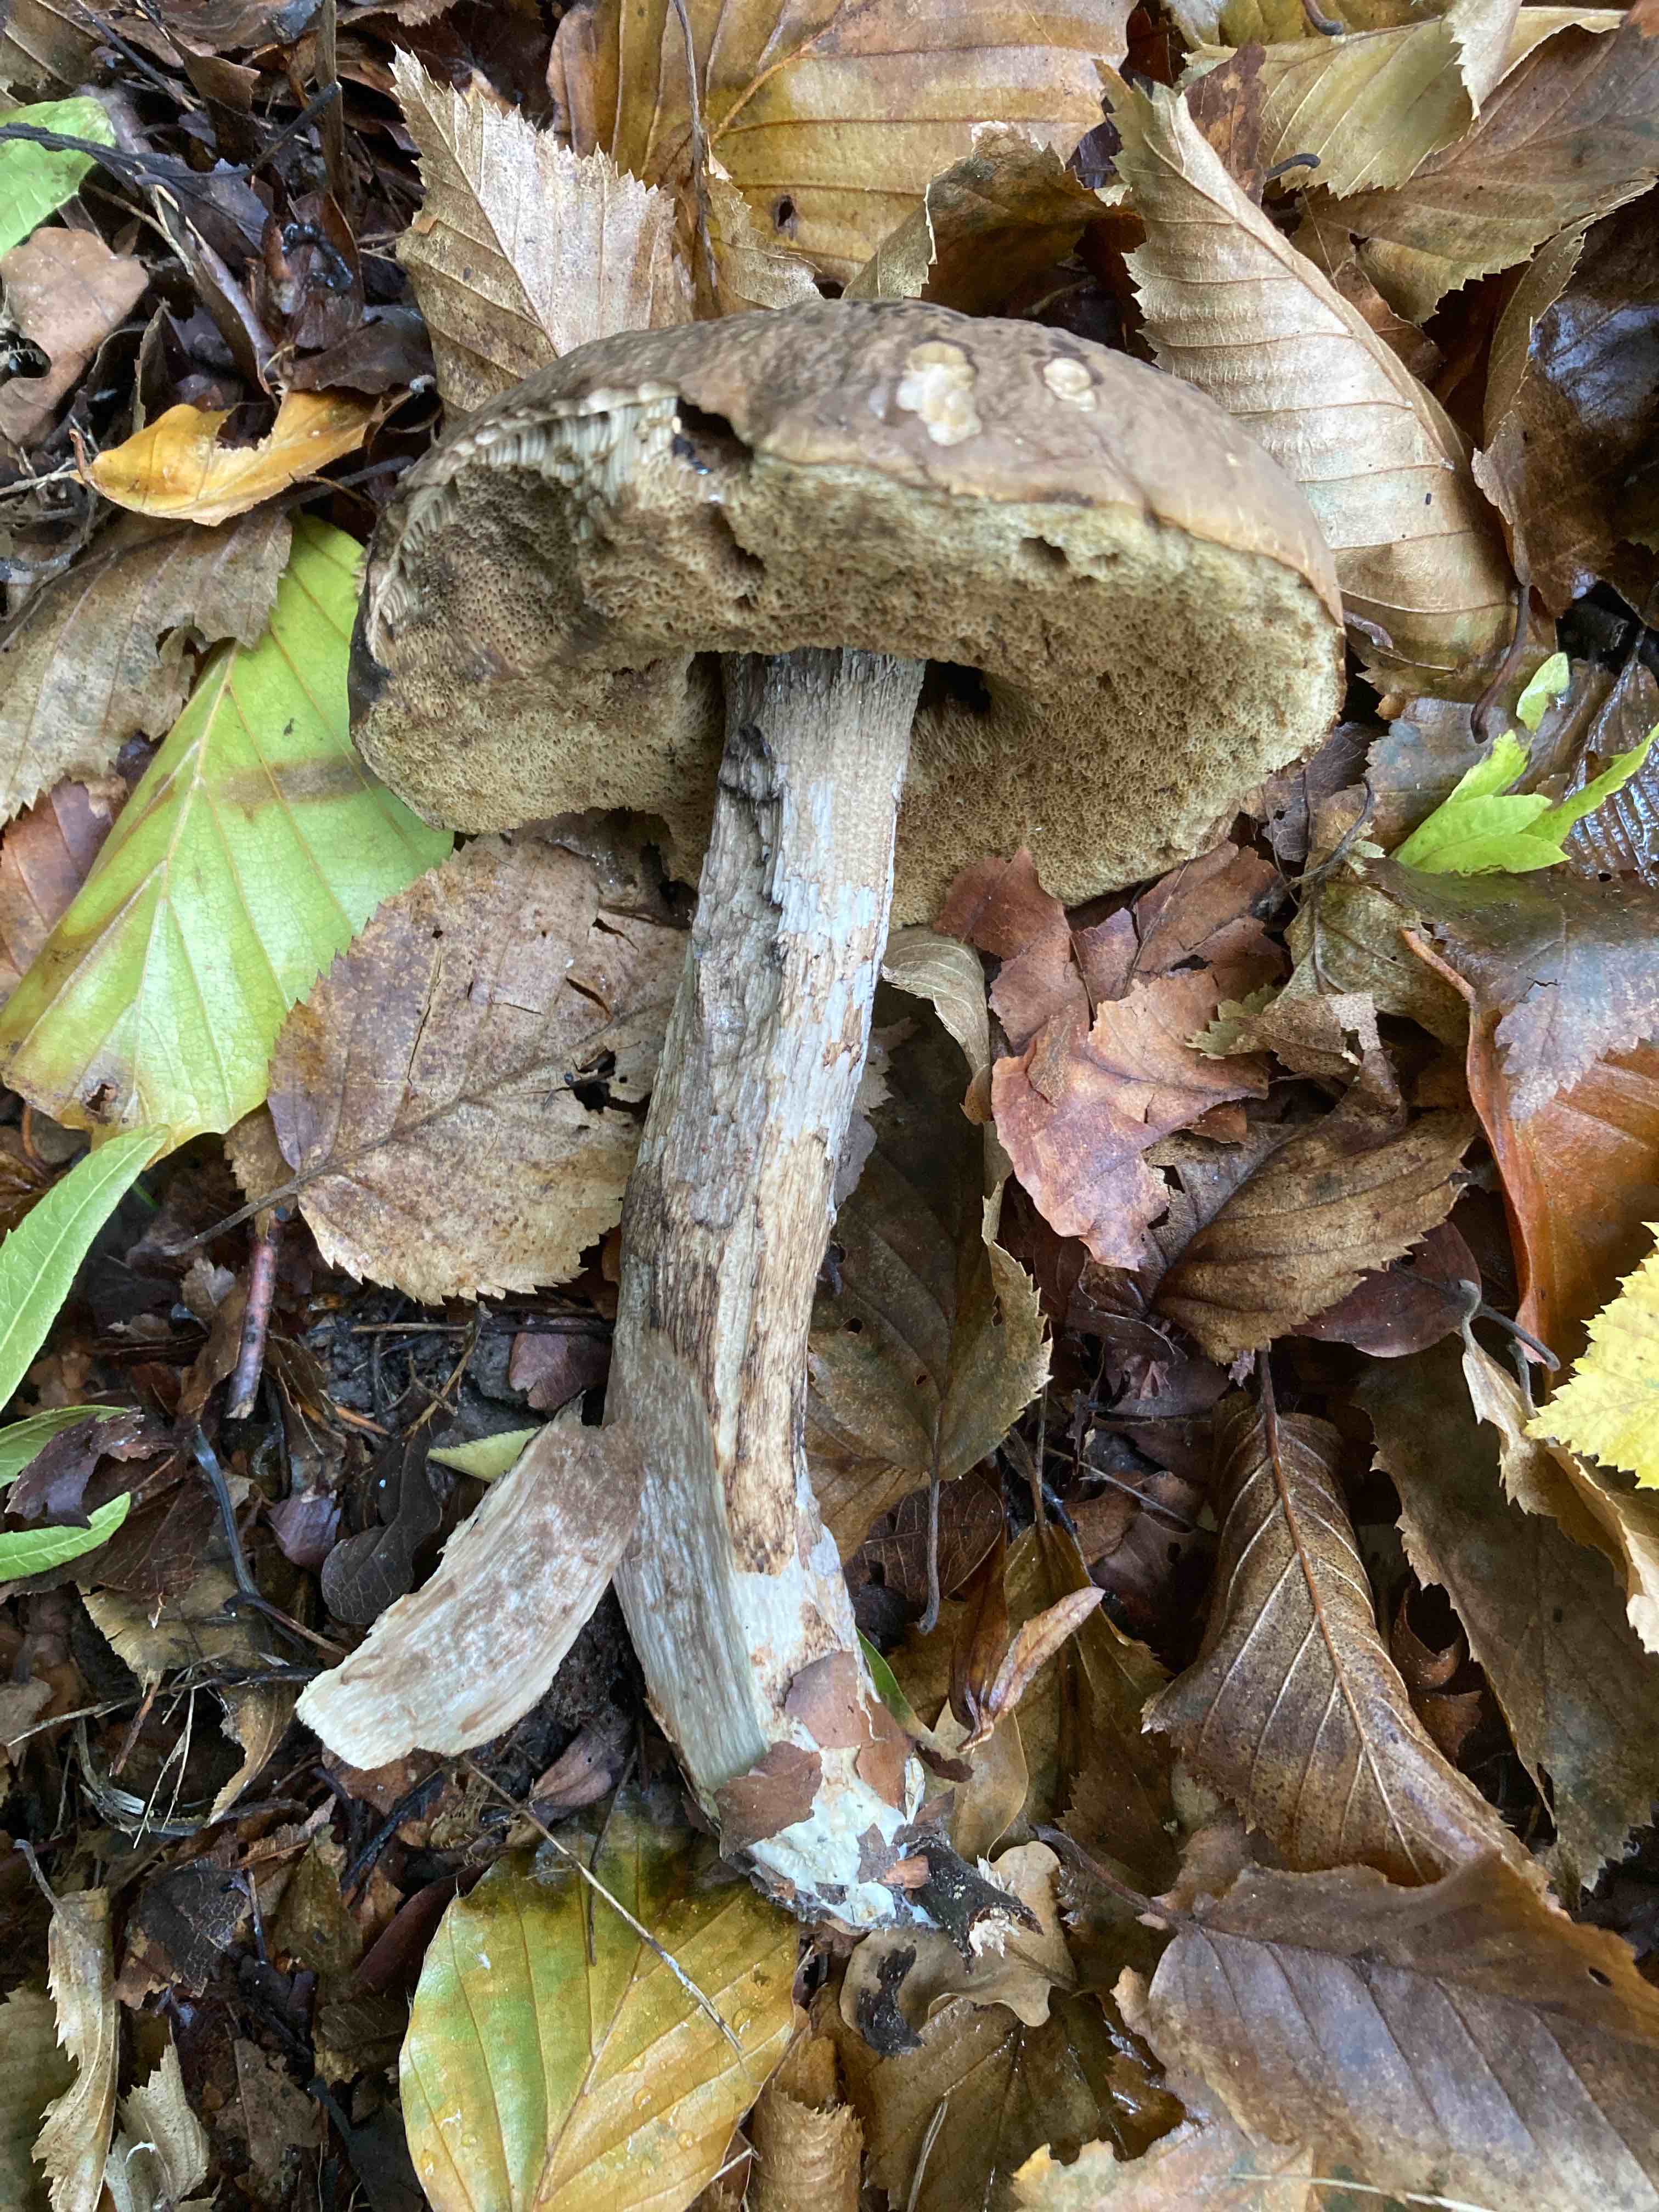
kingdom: Fungi
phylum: Basidiomycota
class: Agaricomycetes
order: Boletales
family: Boletaceae
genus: Leccinellum
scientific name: Leccinellum pseudoscabrum
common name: avnbøg-skælrørhat
